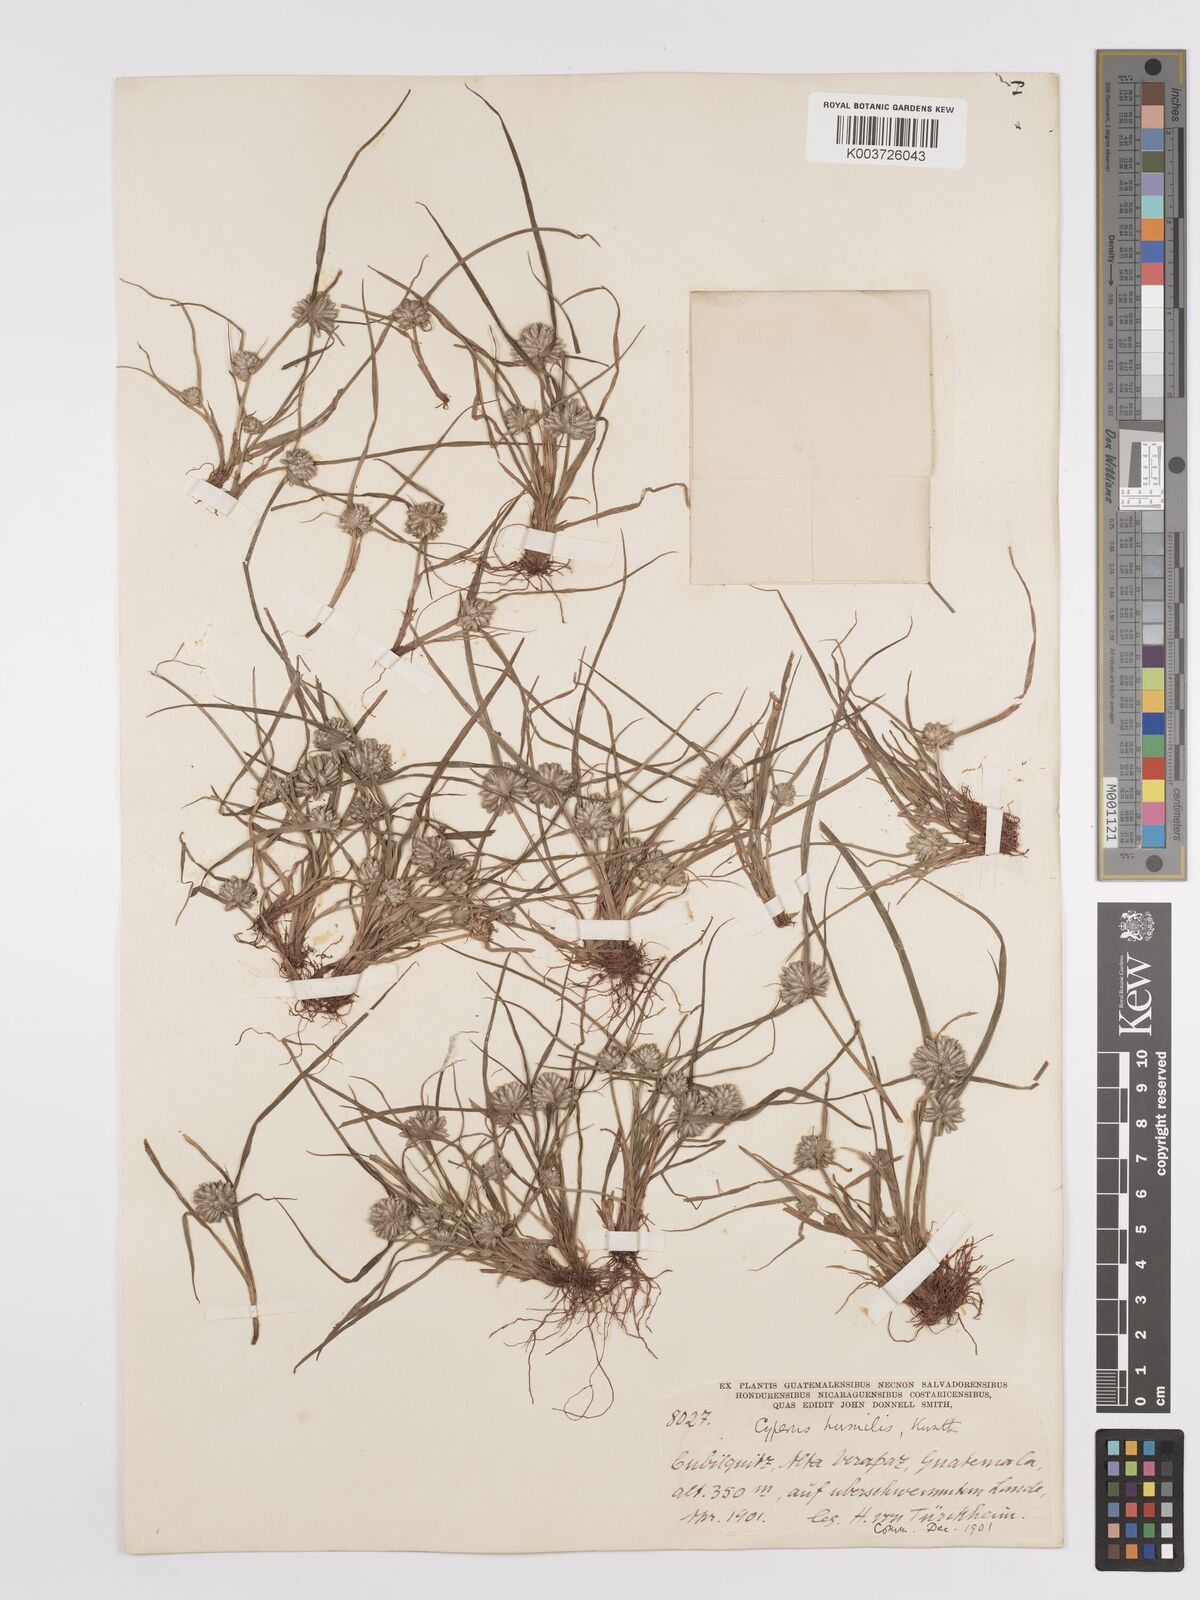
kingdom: Plantae
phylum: Tracheophyta
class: Liliopsida
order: Poales
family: Cyperaceae
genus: Cyperus
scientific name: Cyperus humilis
